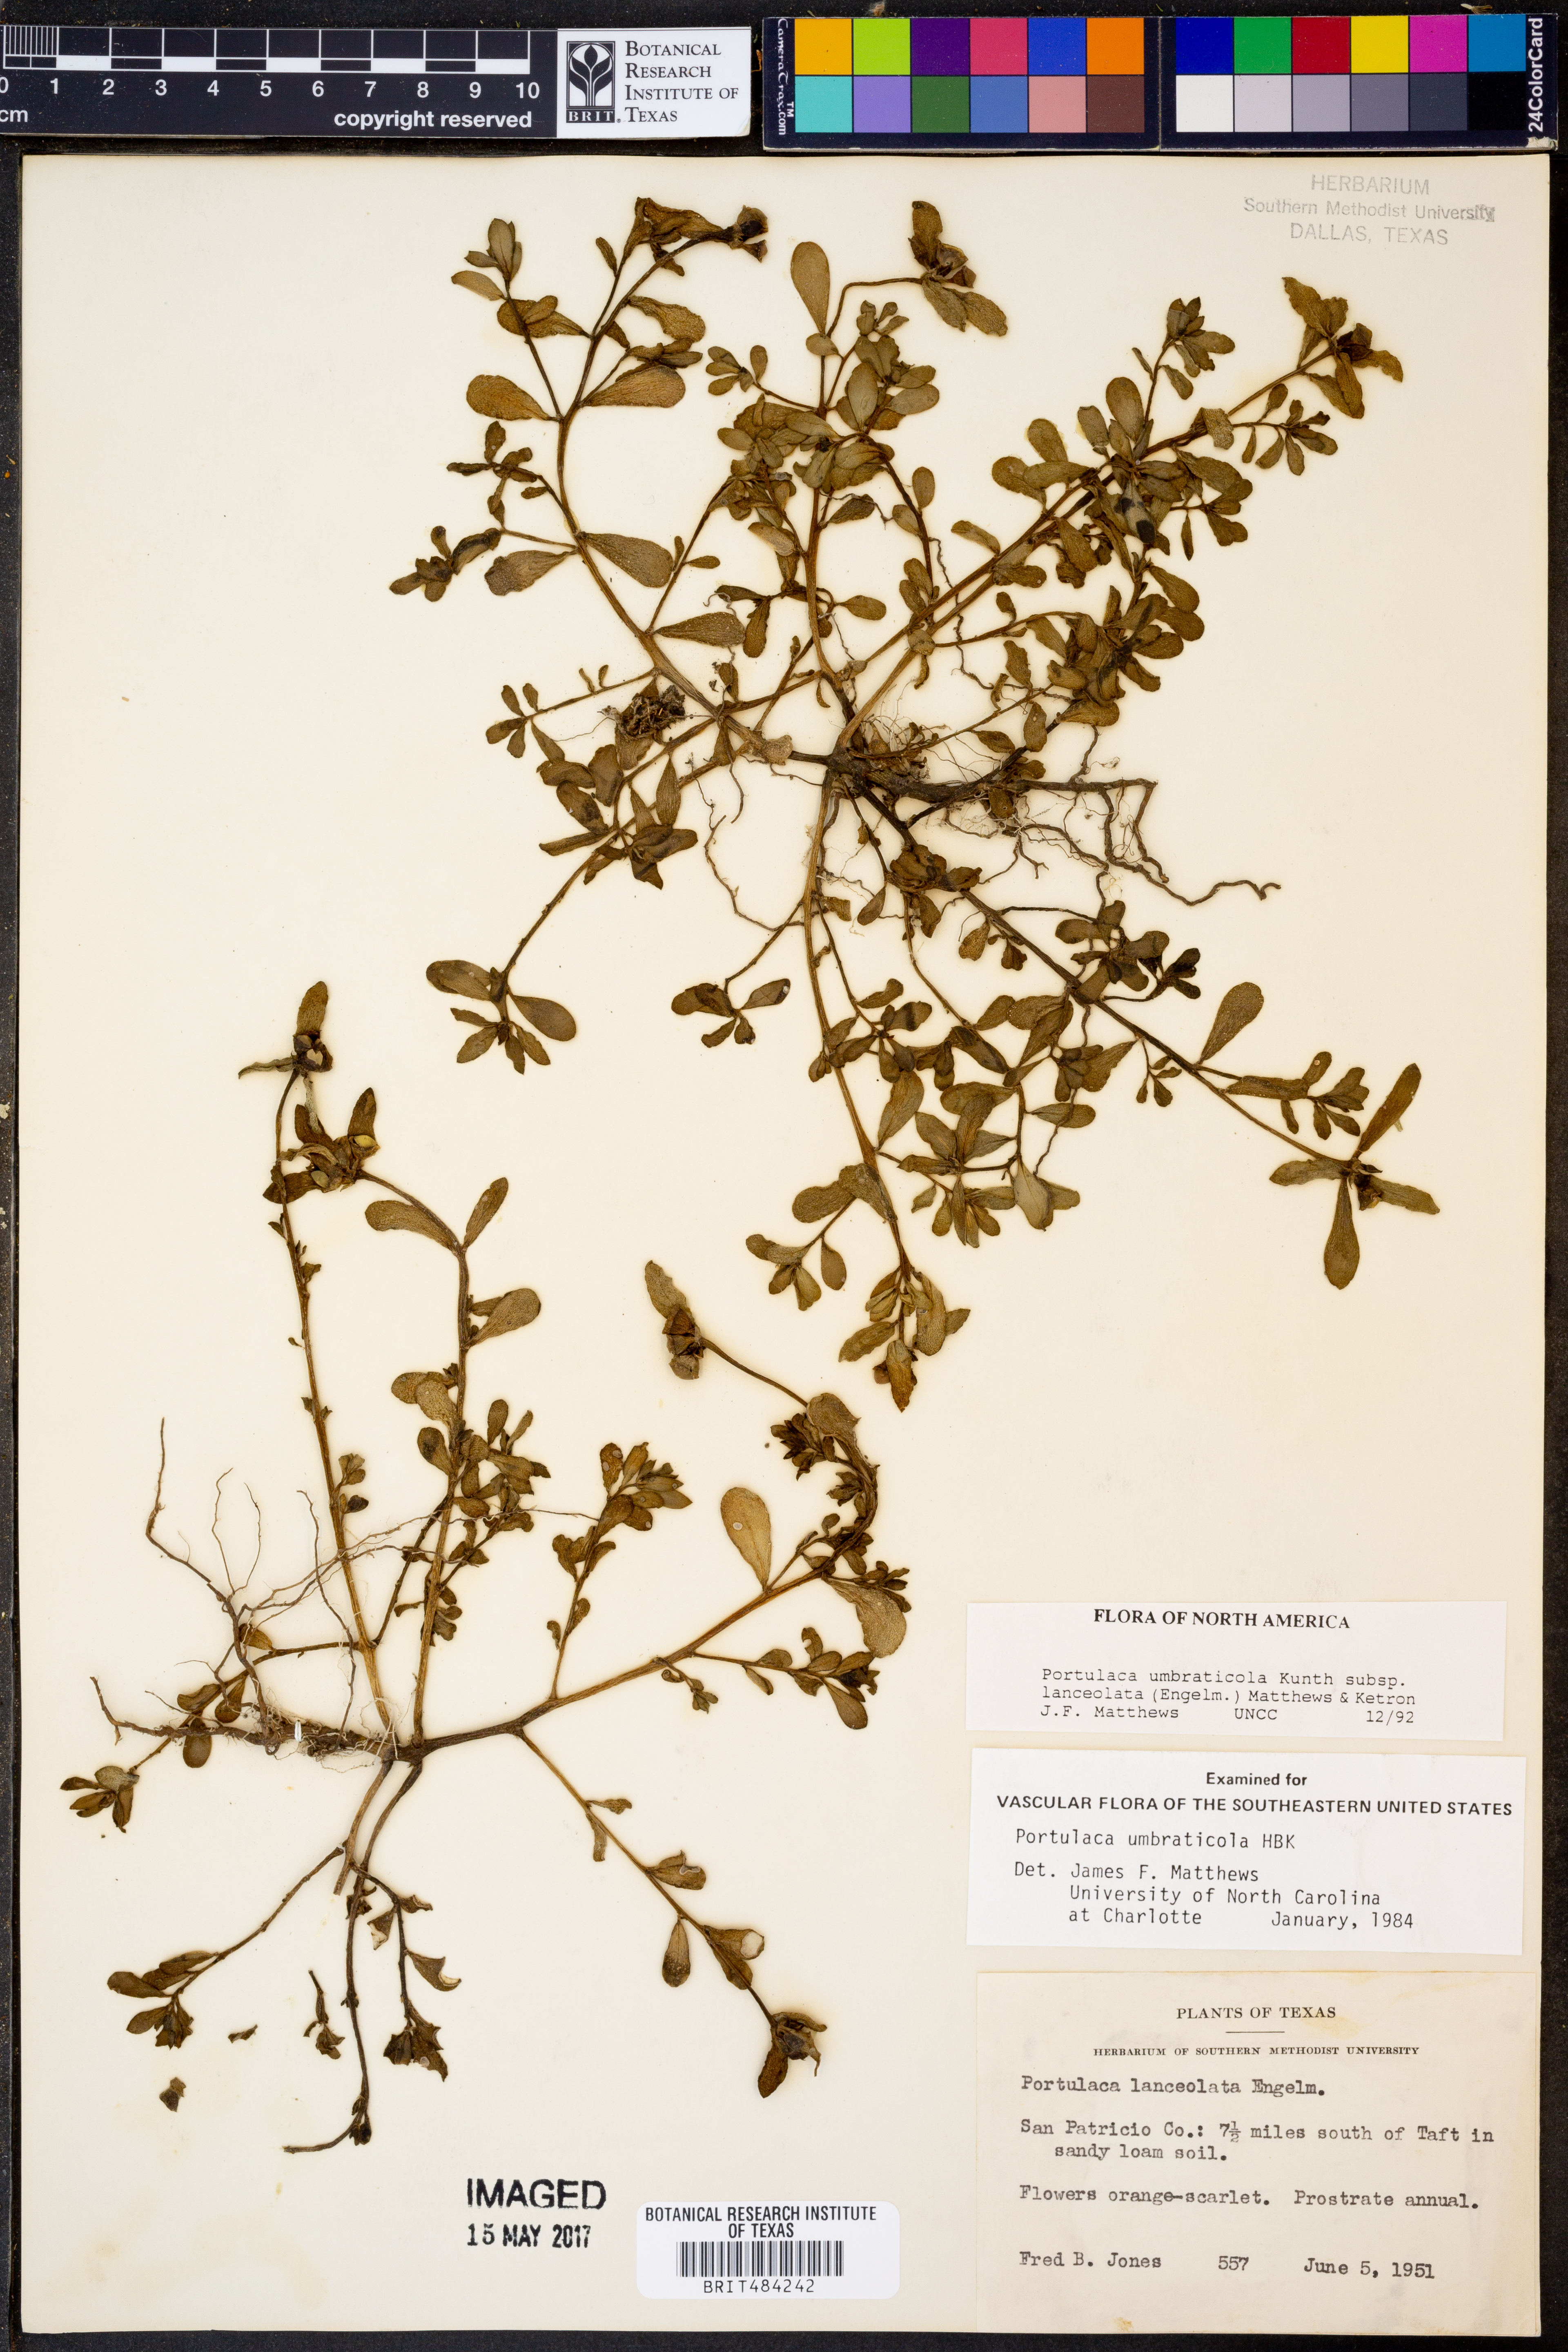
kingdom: Plantae
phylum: Tracheophyta
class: Magnoliopsida
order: Caryophyllales
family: Portulacaceae
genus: Portulaca
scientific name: Portulaca umbraticola
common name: Wingpod purslane
